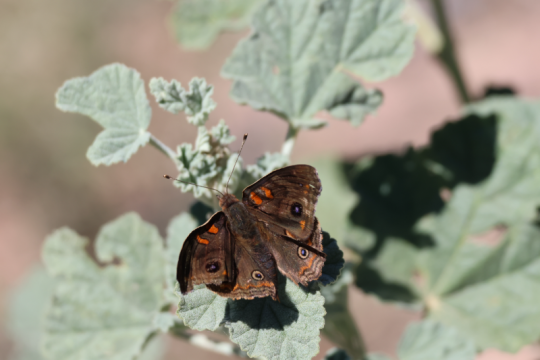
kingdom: Animalia
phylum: Arthropoda
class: Insecta
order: Lepidoptera
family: Nymphalidae
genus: Junonia
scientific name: Junonia lavinia
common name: Tropical Buckeye
